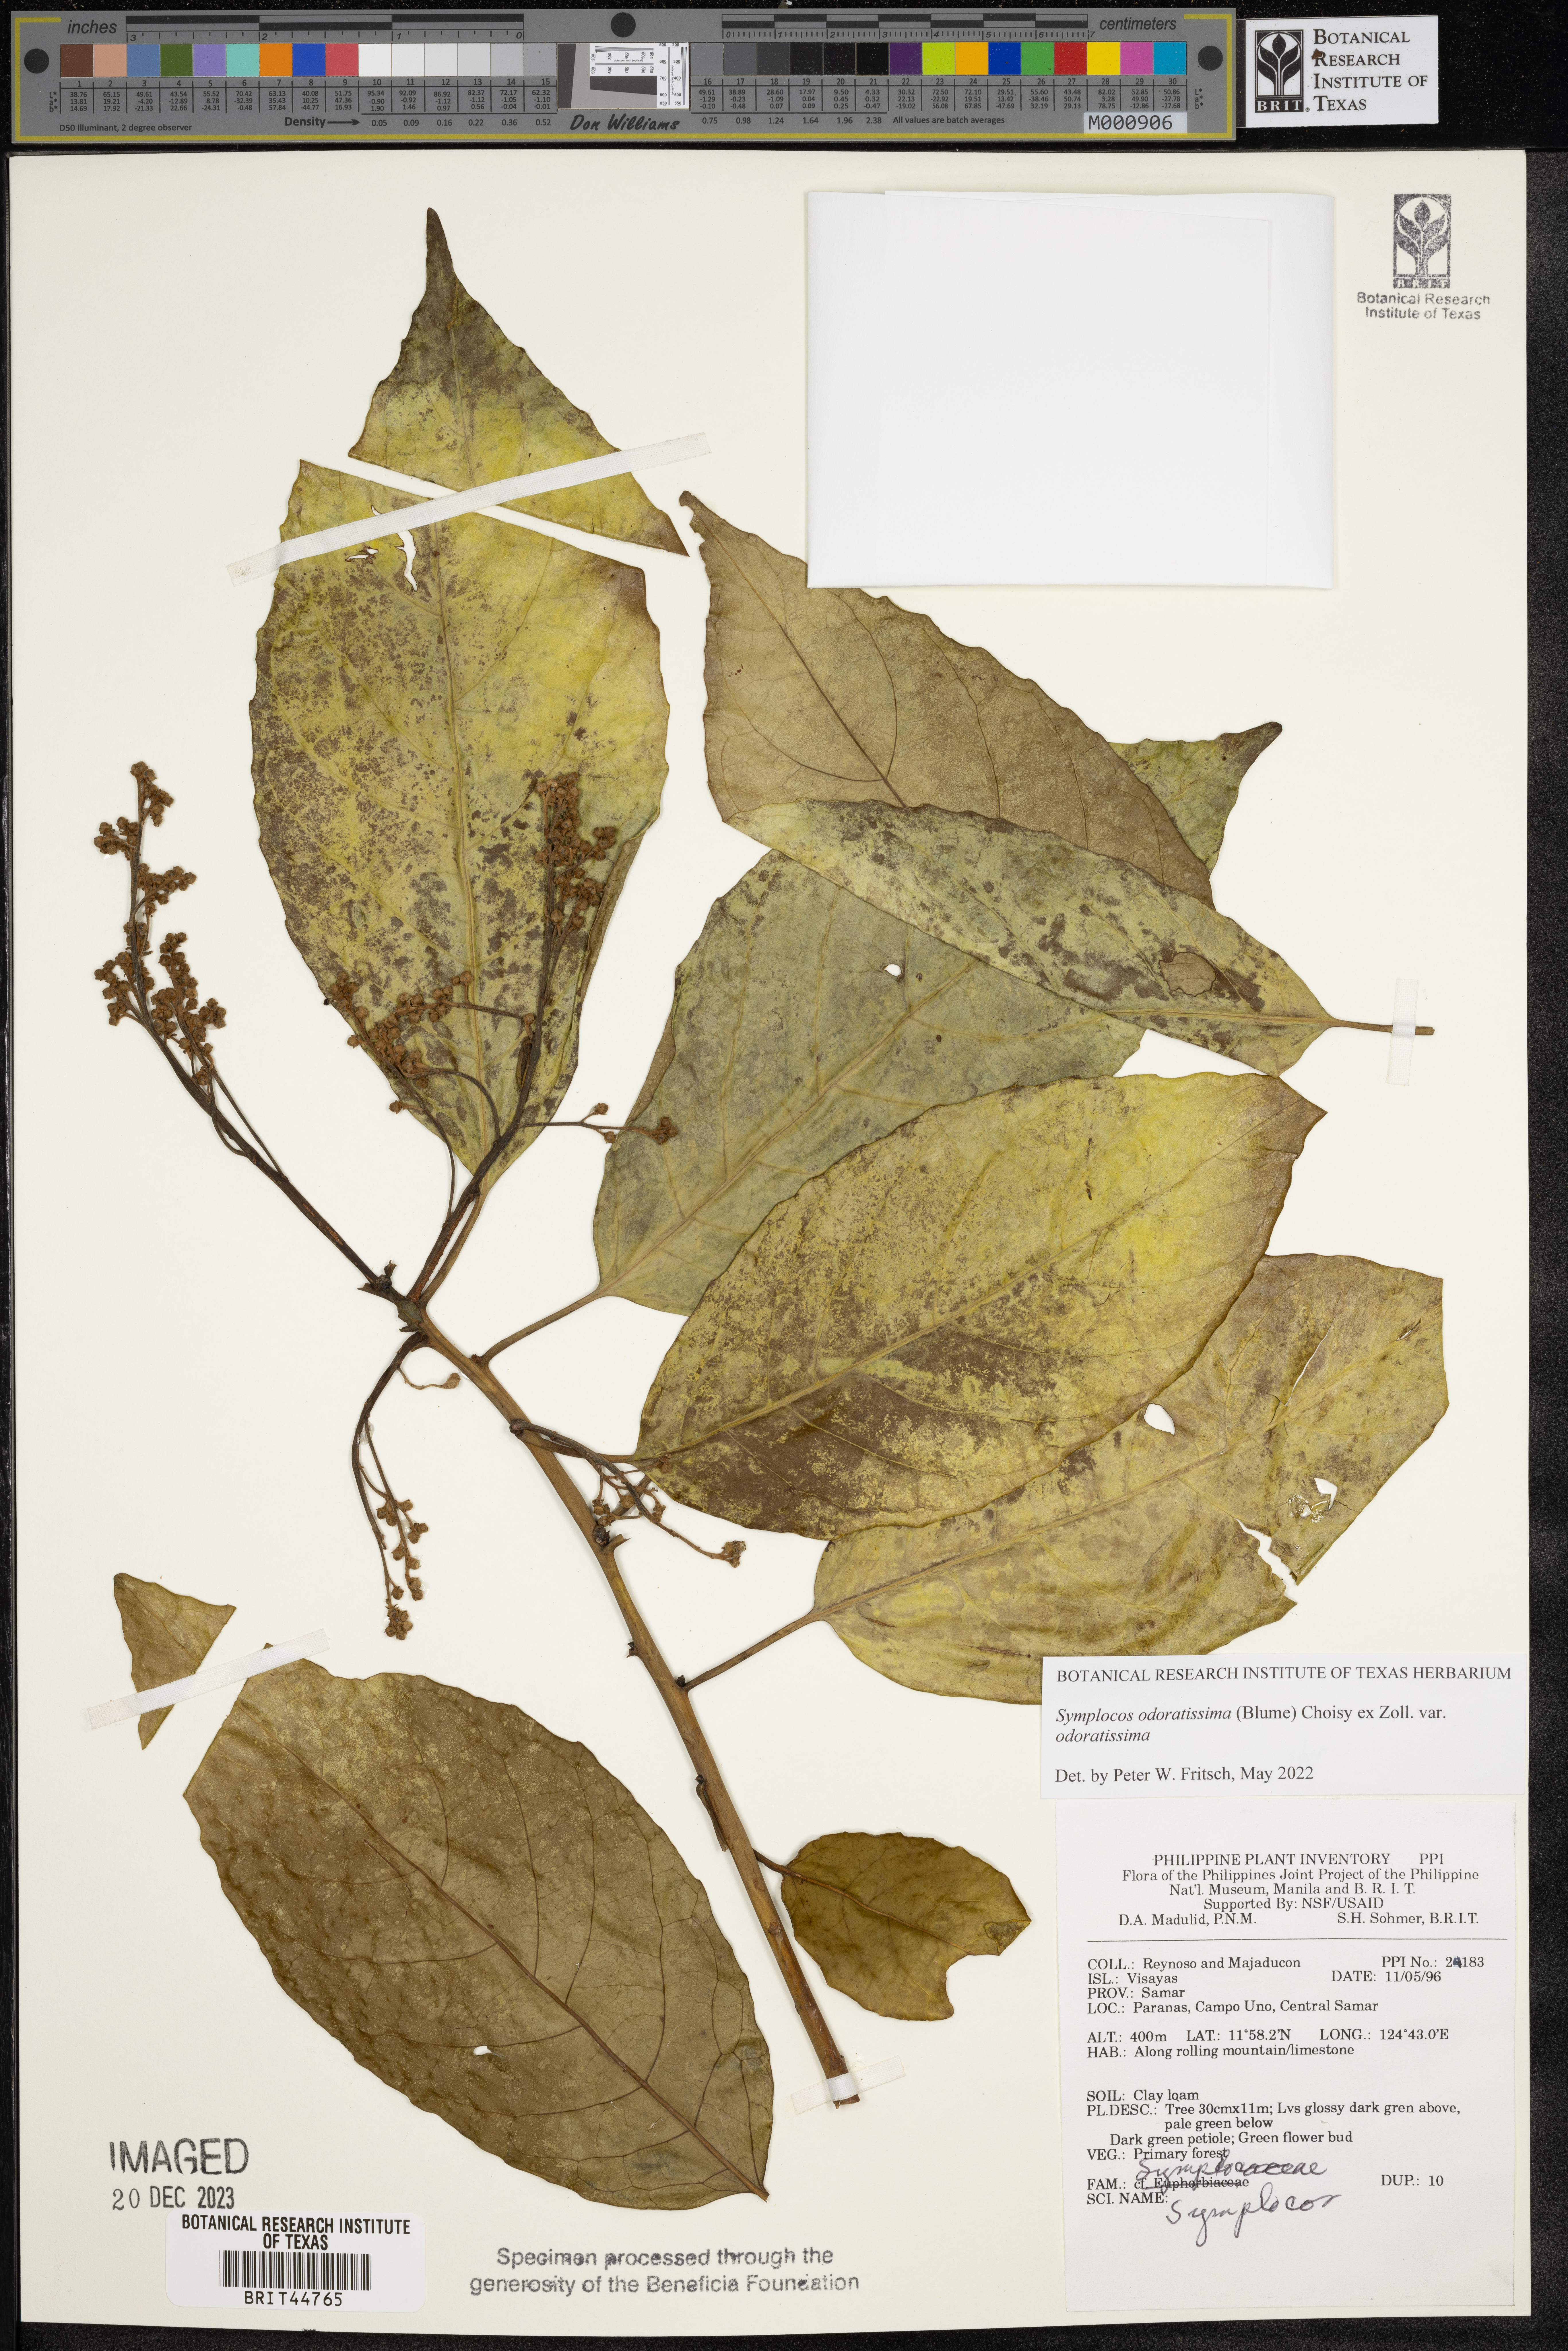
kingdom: Plantae
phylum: Tracheophyta
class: Magnoliopsida
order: Ericales
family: Symplocaceae
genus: Symplocos
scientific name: Symplocos
